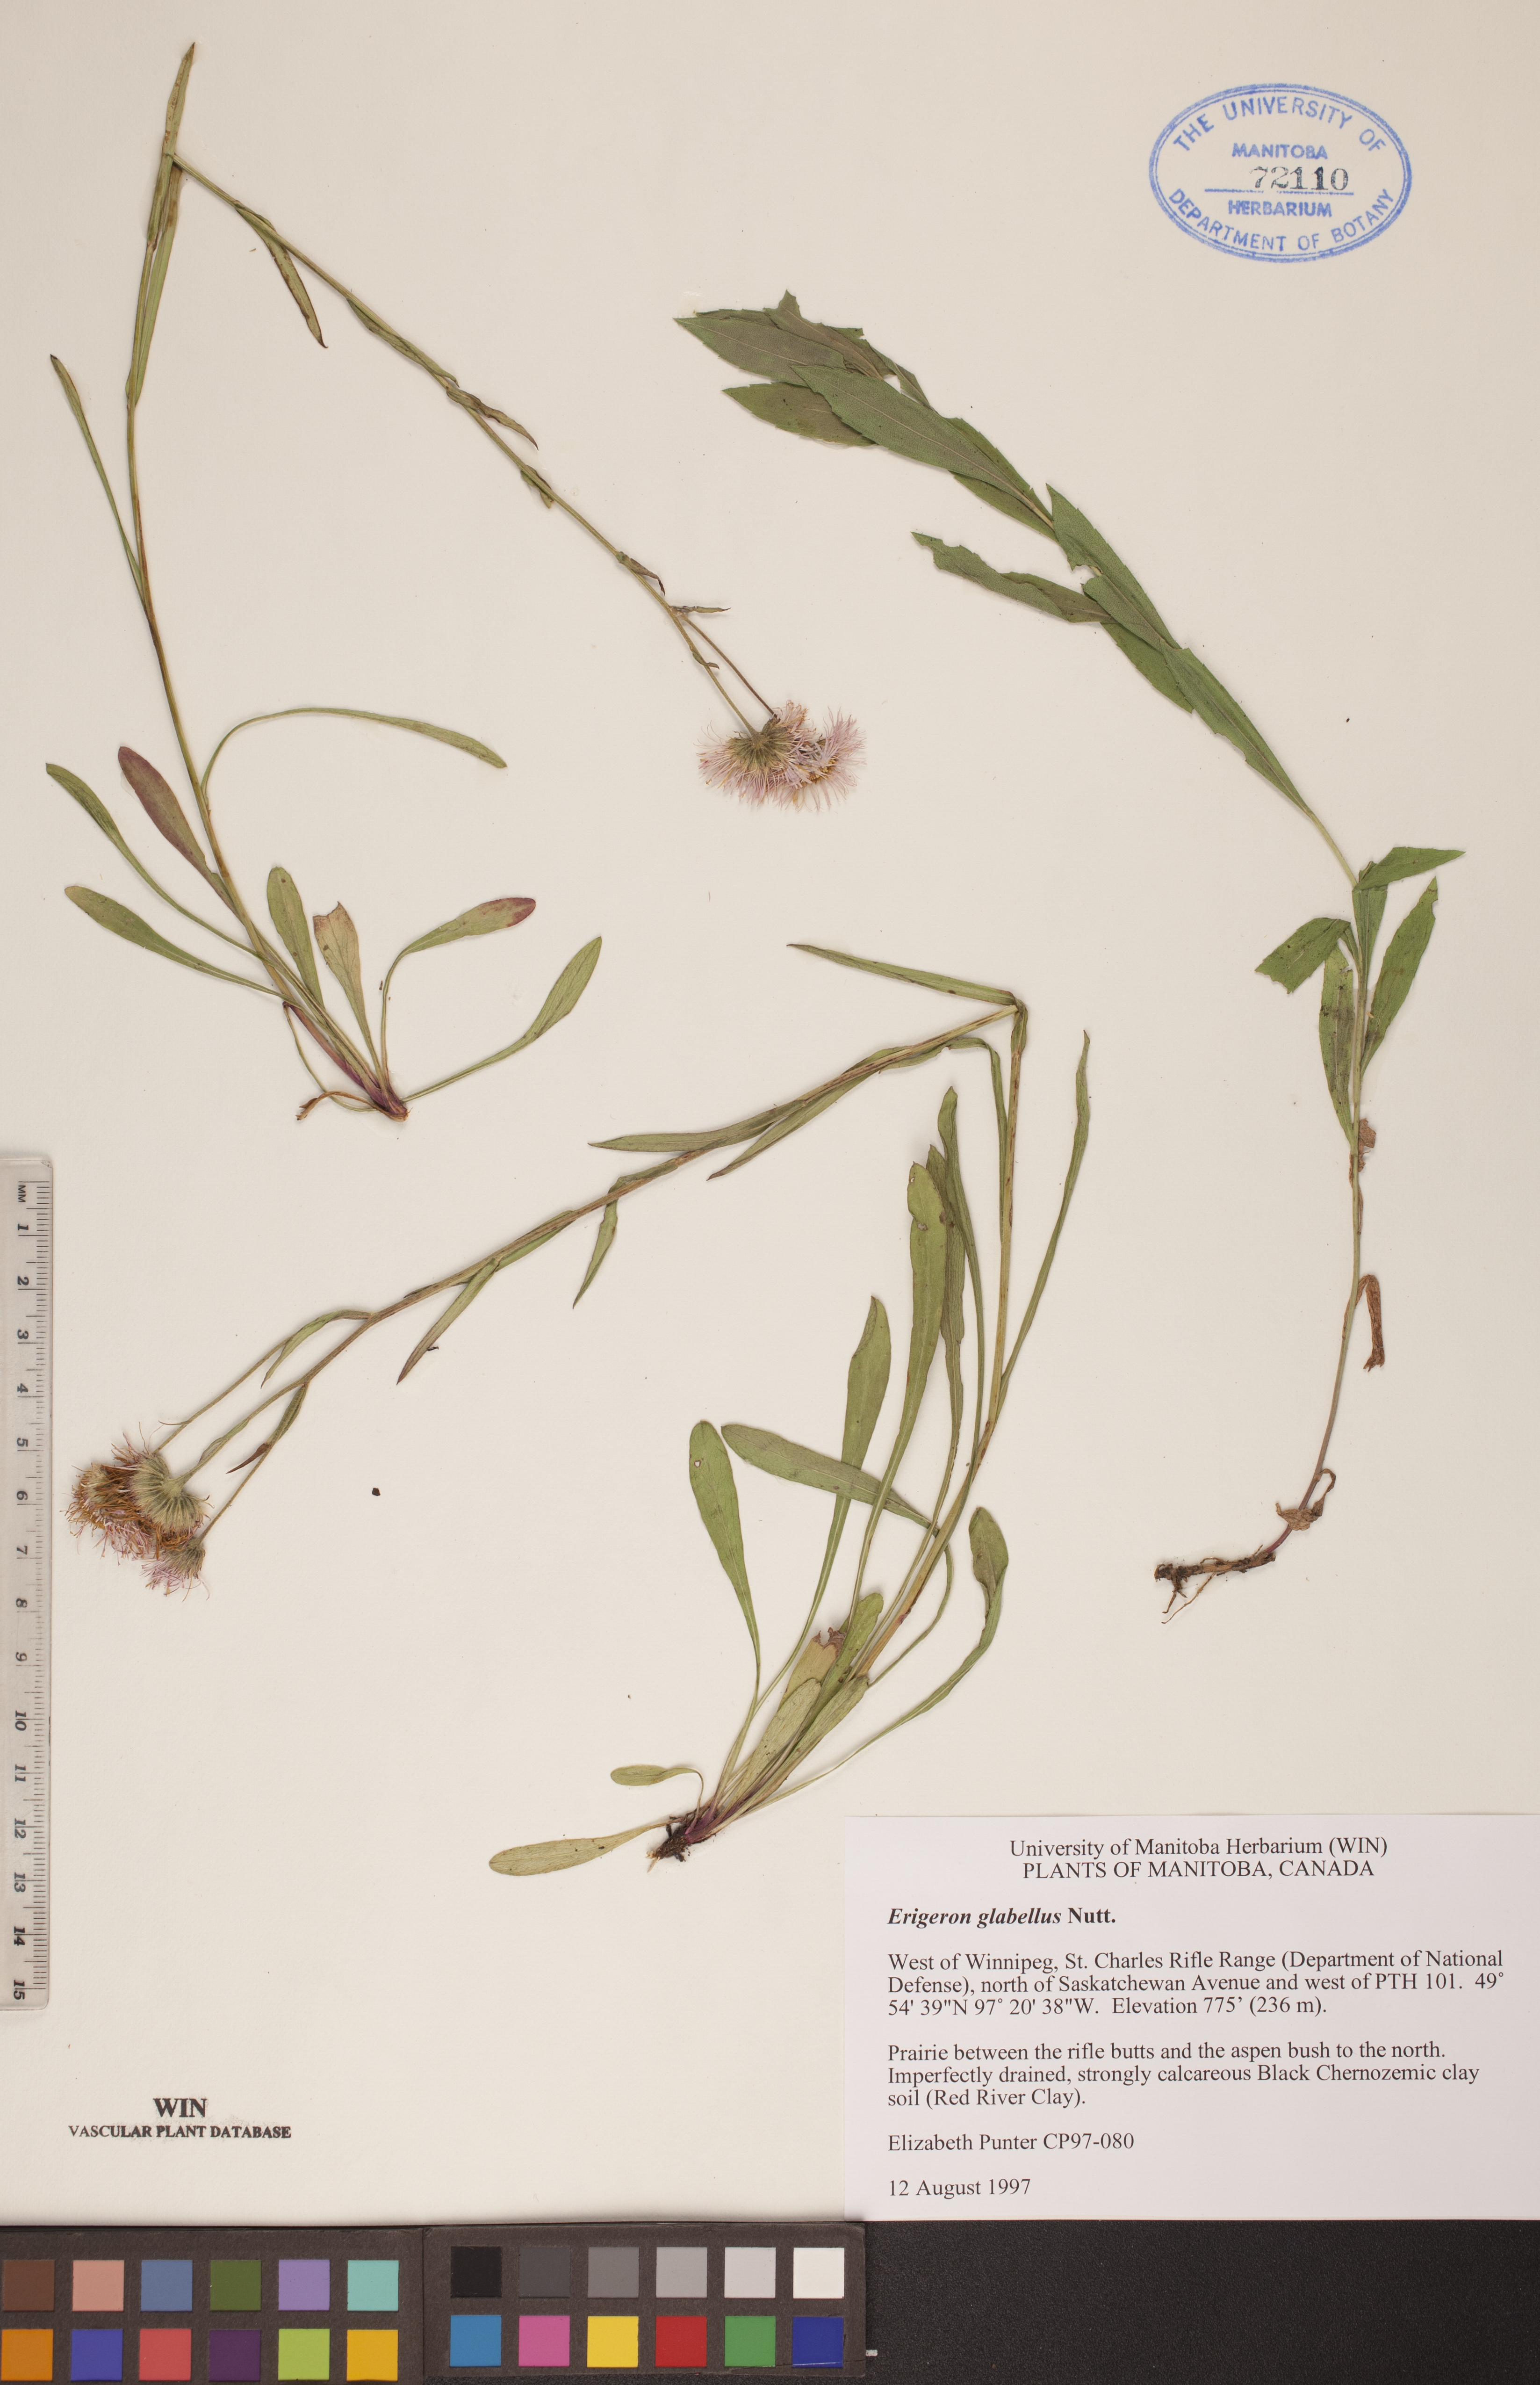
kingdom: Plantae
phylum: Tracheophyta
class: Magnoliopsida
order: Asterales
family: Asteraceae
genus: Erigeron
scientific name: Erigeron glabellus
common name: Smooth fleabane
